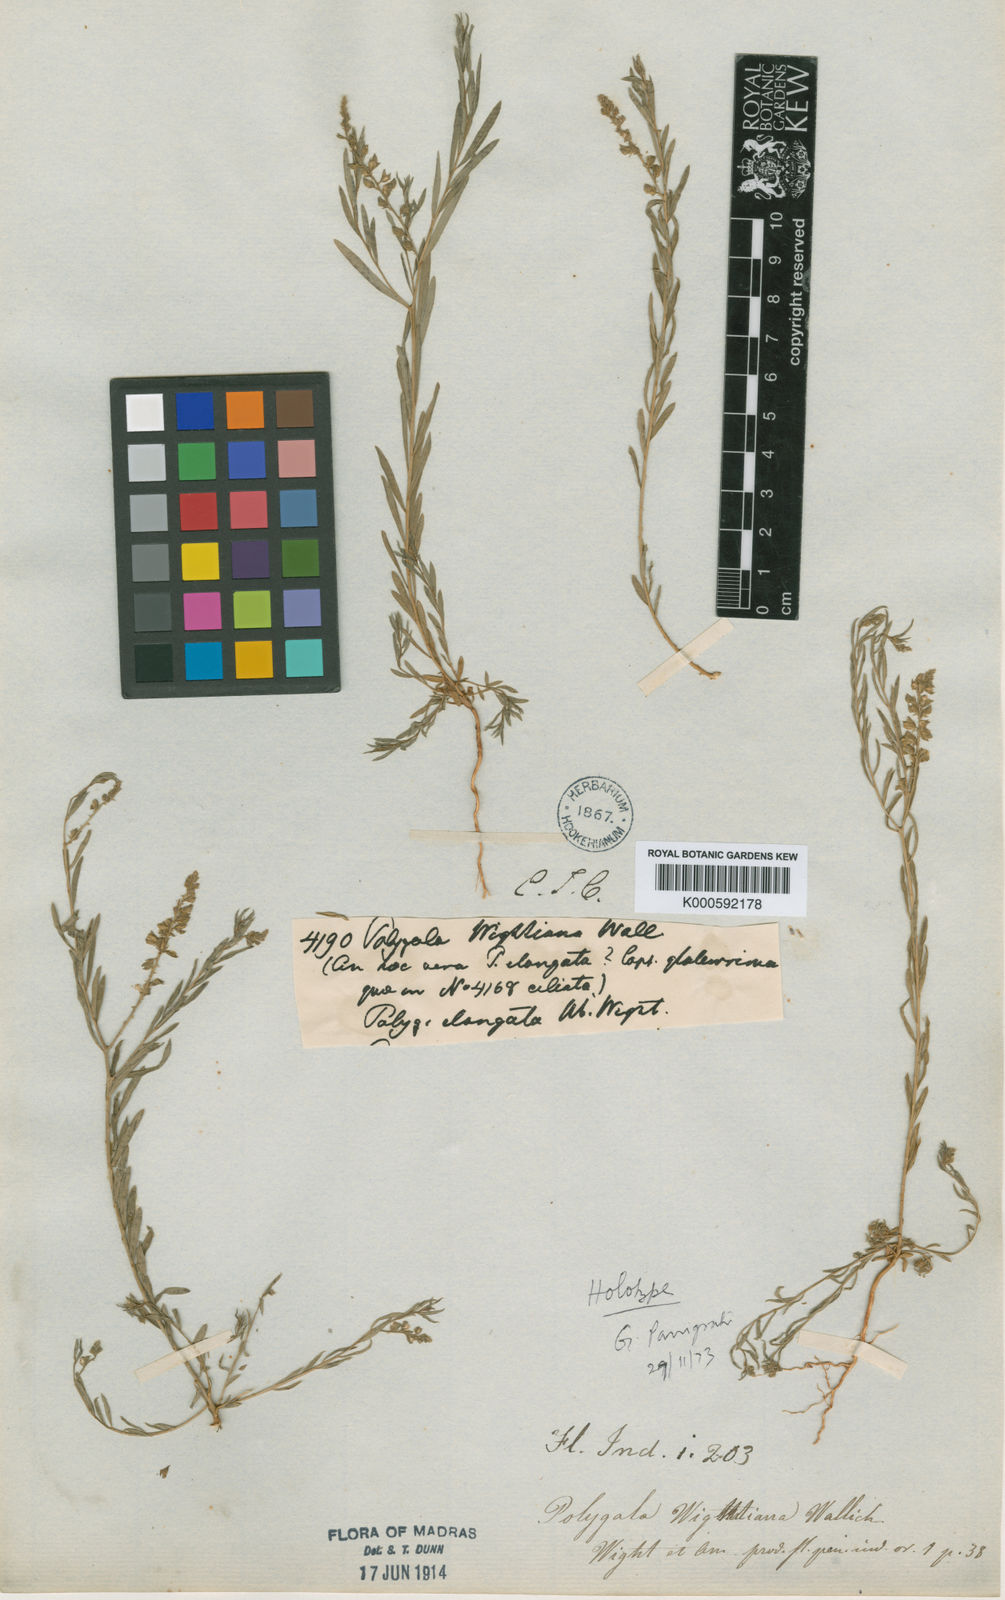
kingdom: Plantae
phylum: Tracheophyta
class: Magnoliopsida
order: Fabales
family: Polygalaceae
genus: Polygala
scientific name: Polygala wightiana
